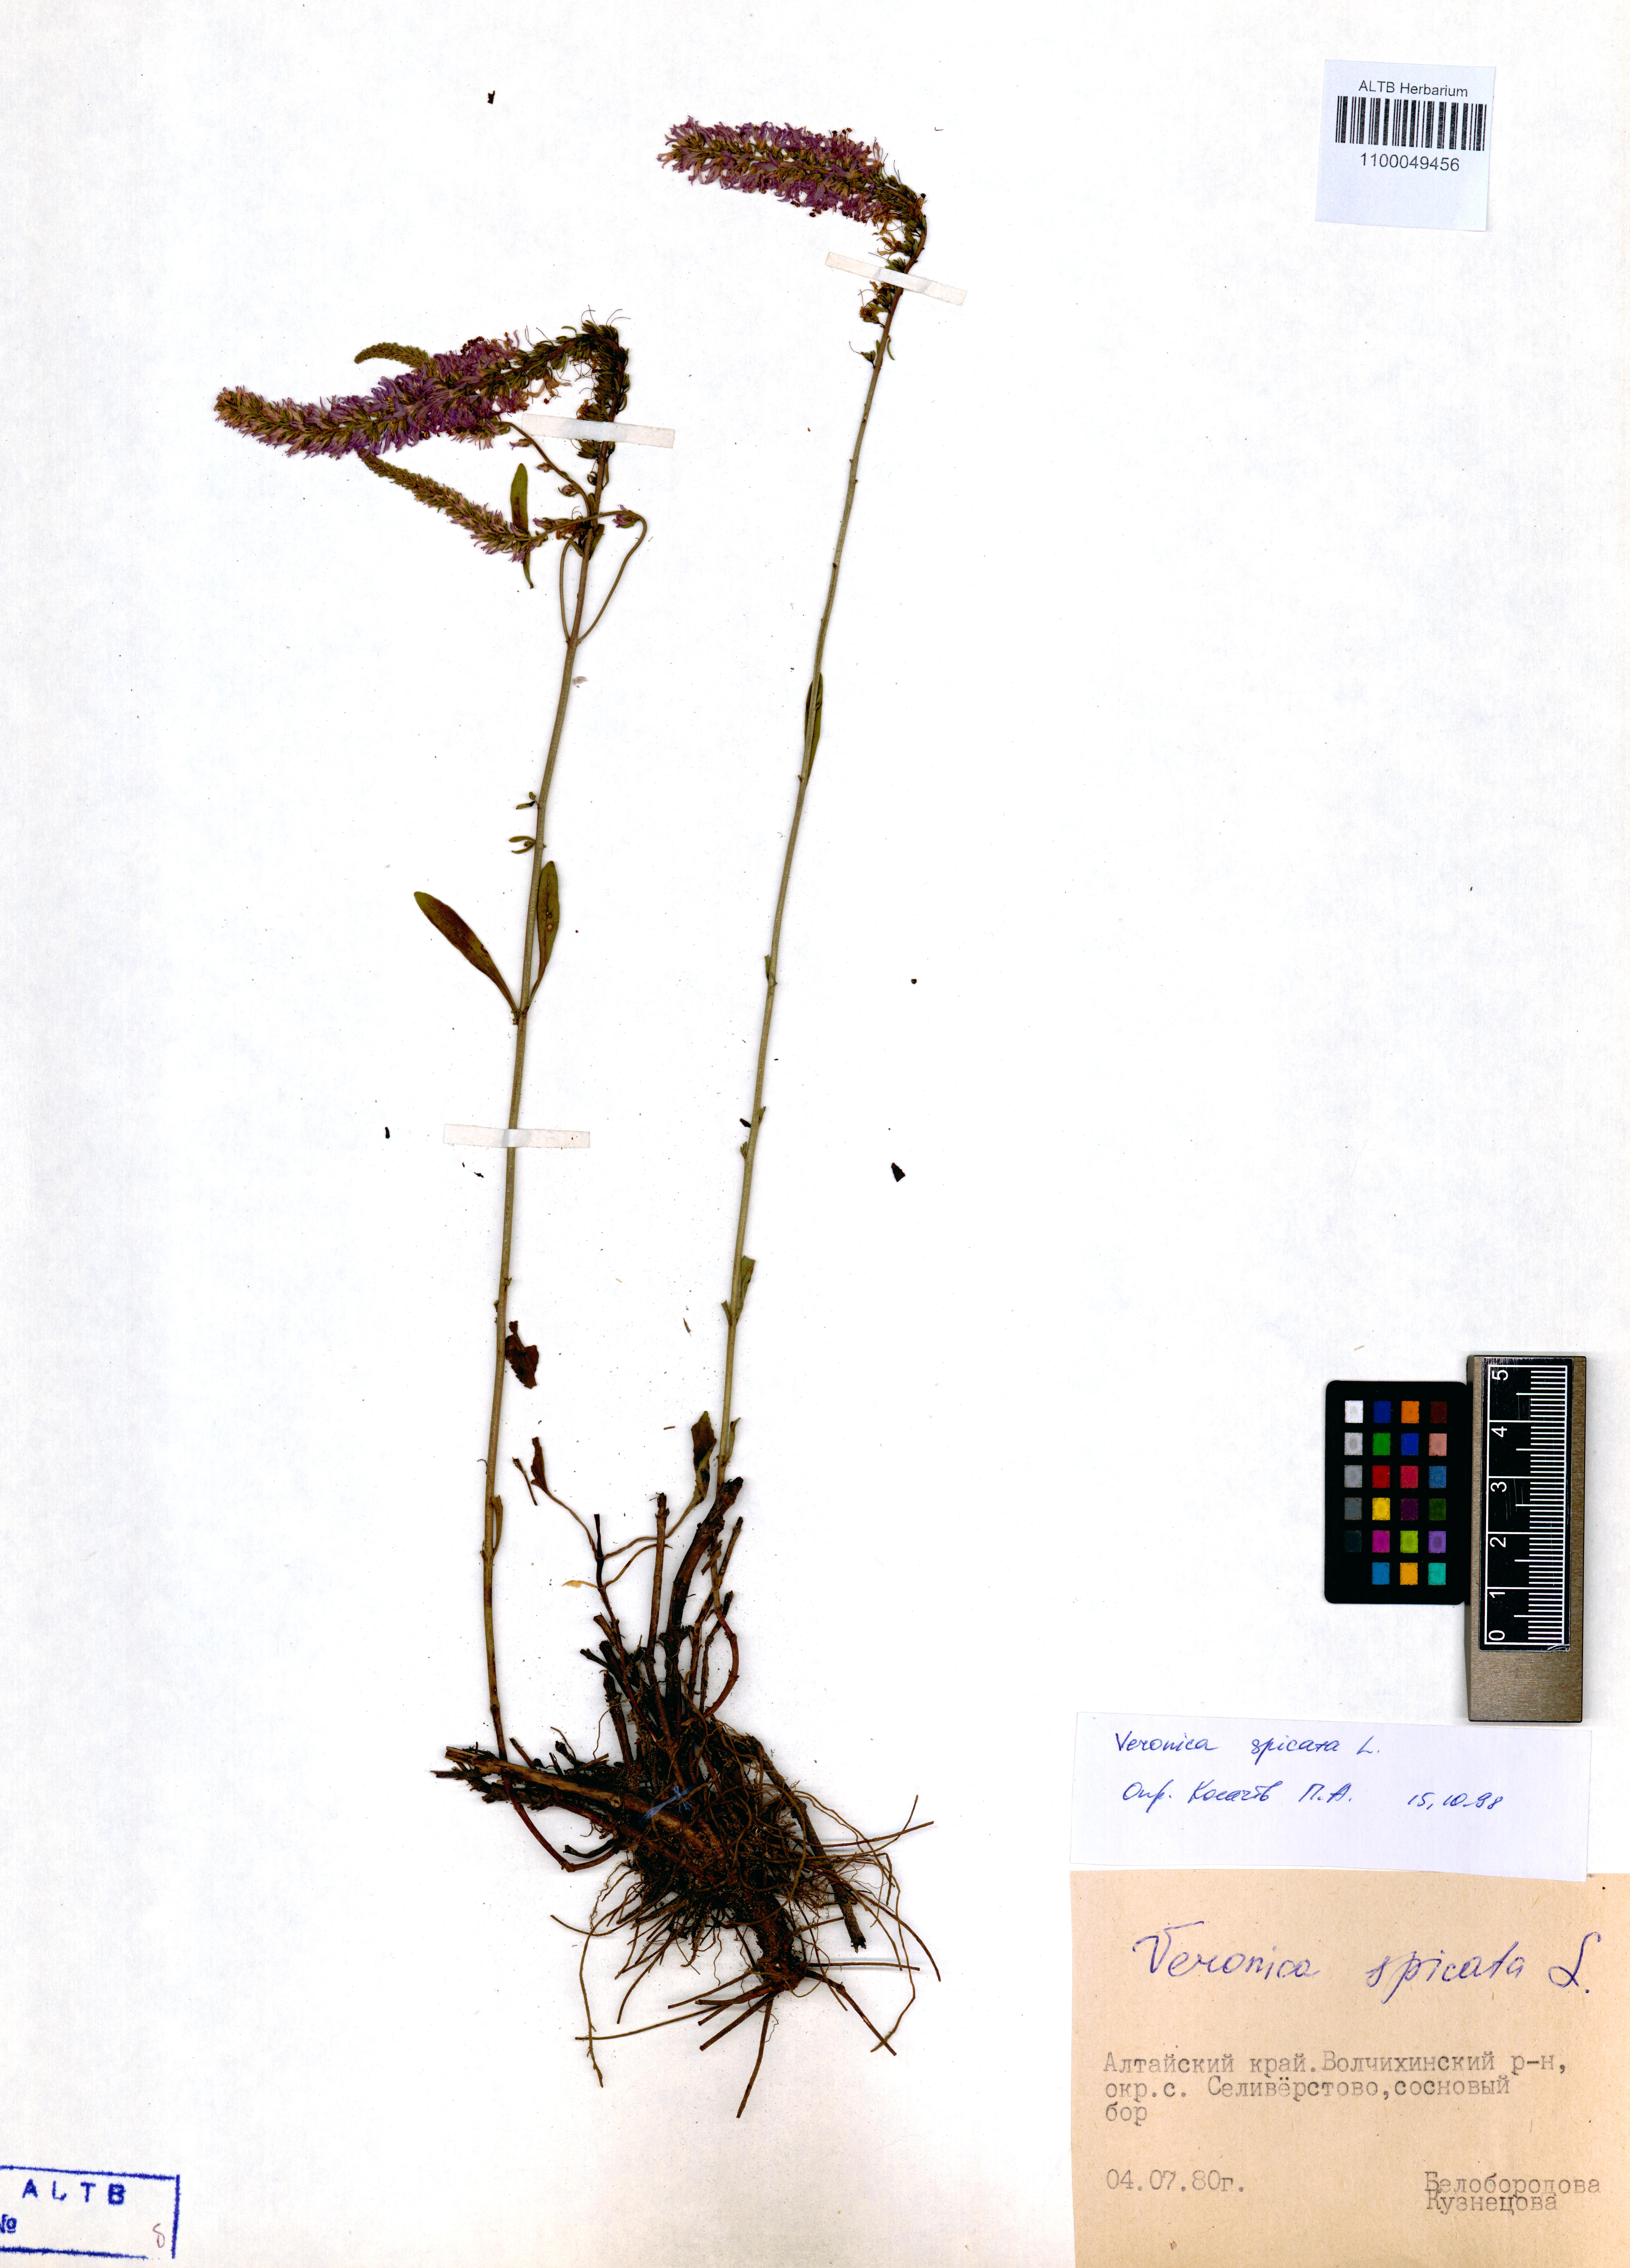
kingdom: Plantae
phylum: Tracheophyta
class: Magnoliopsida
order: Lamiales
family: Plantaginaceae
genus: Veronica
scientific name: Veronica spicata
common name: Spiked speedwell
